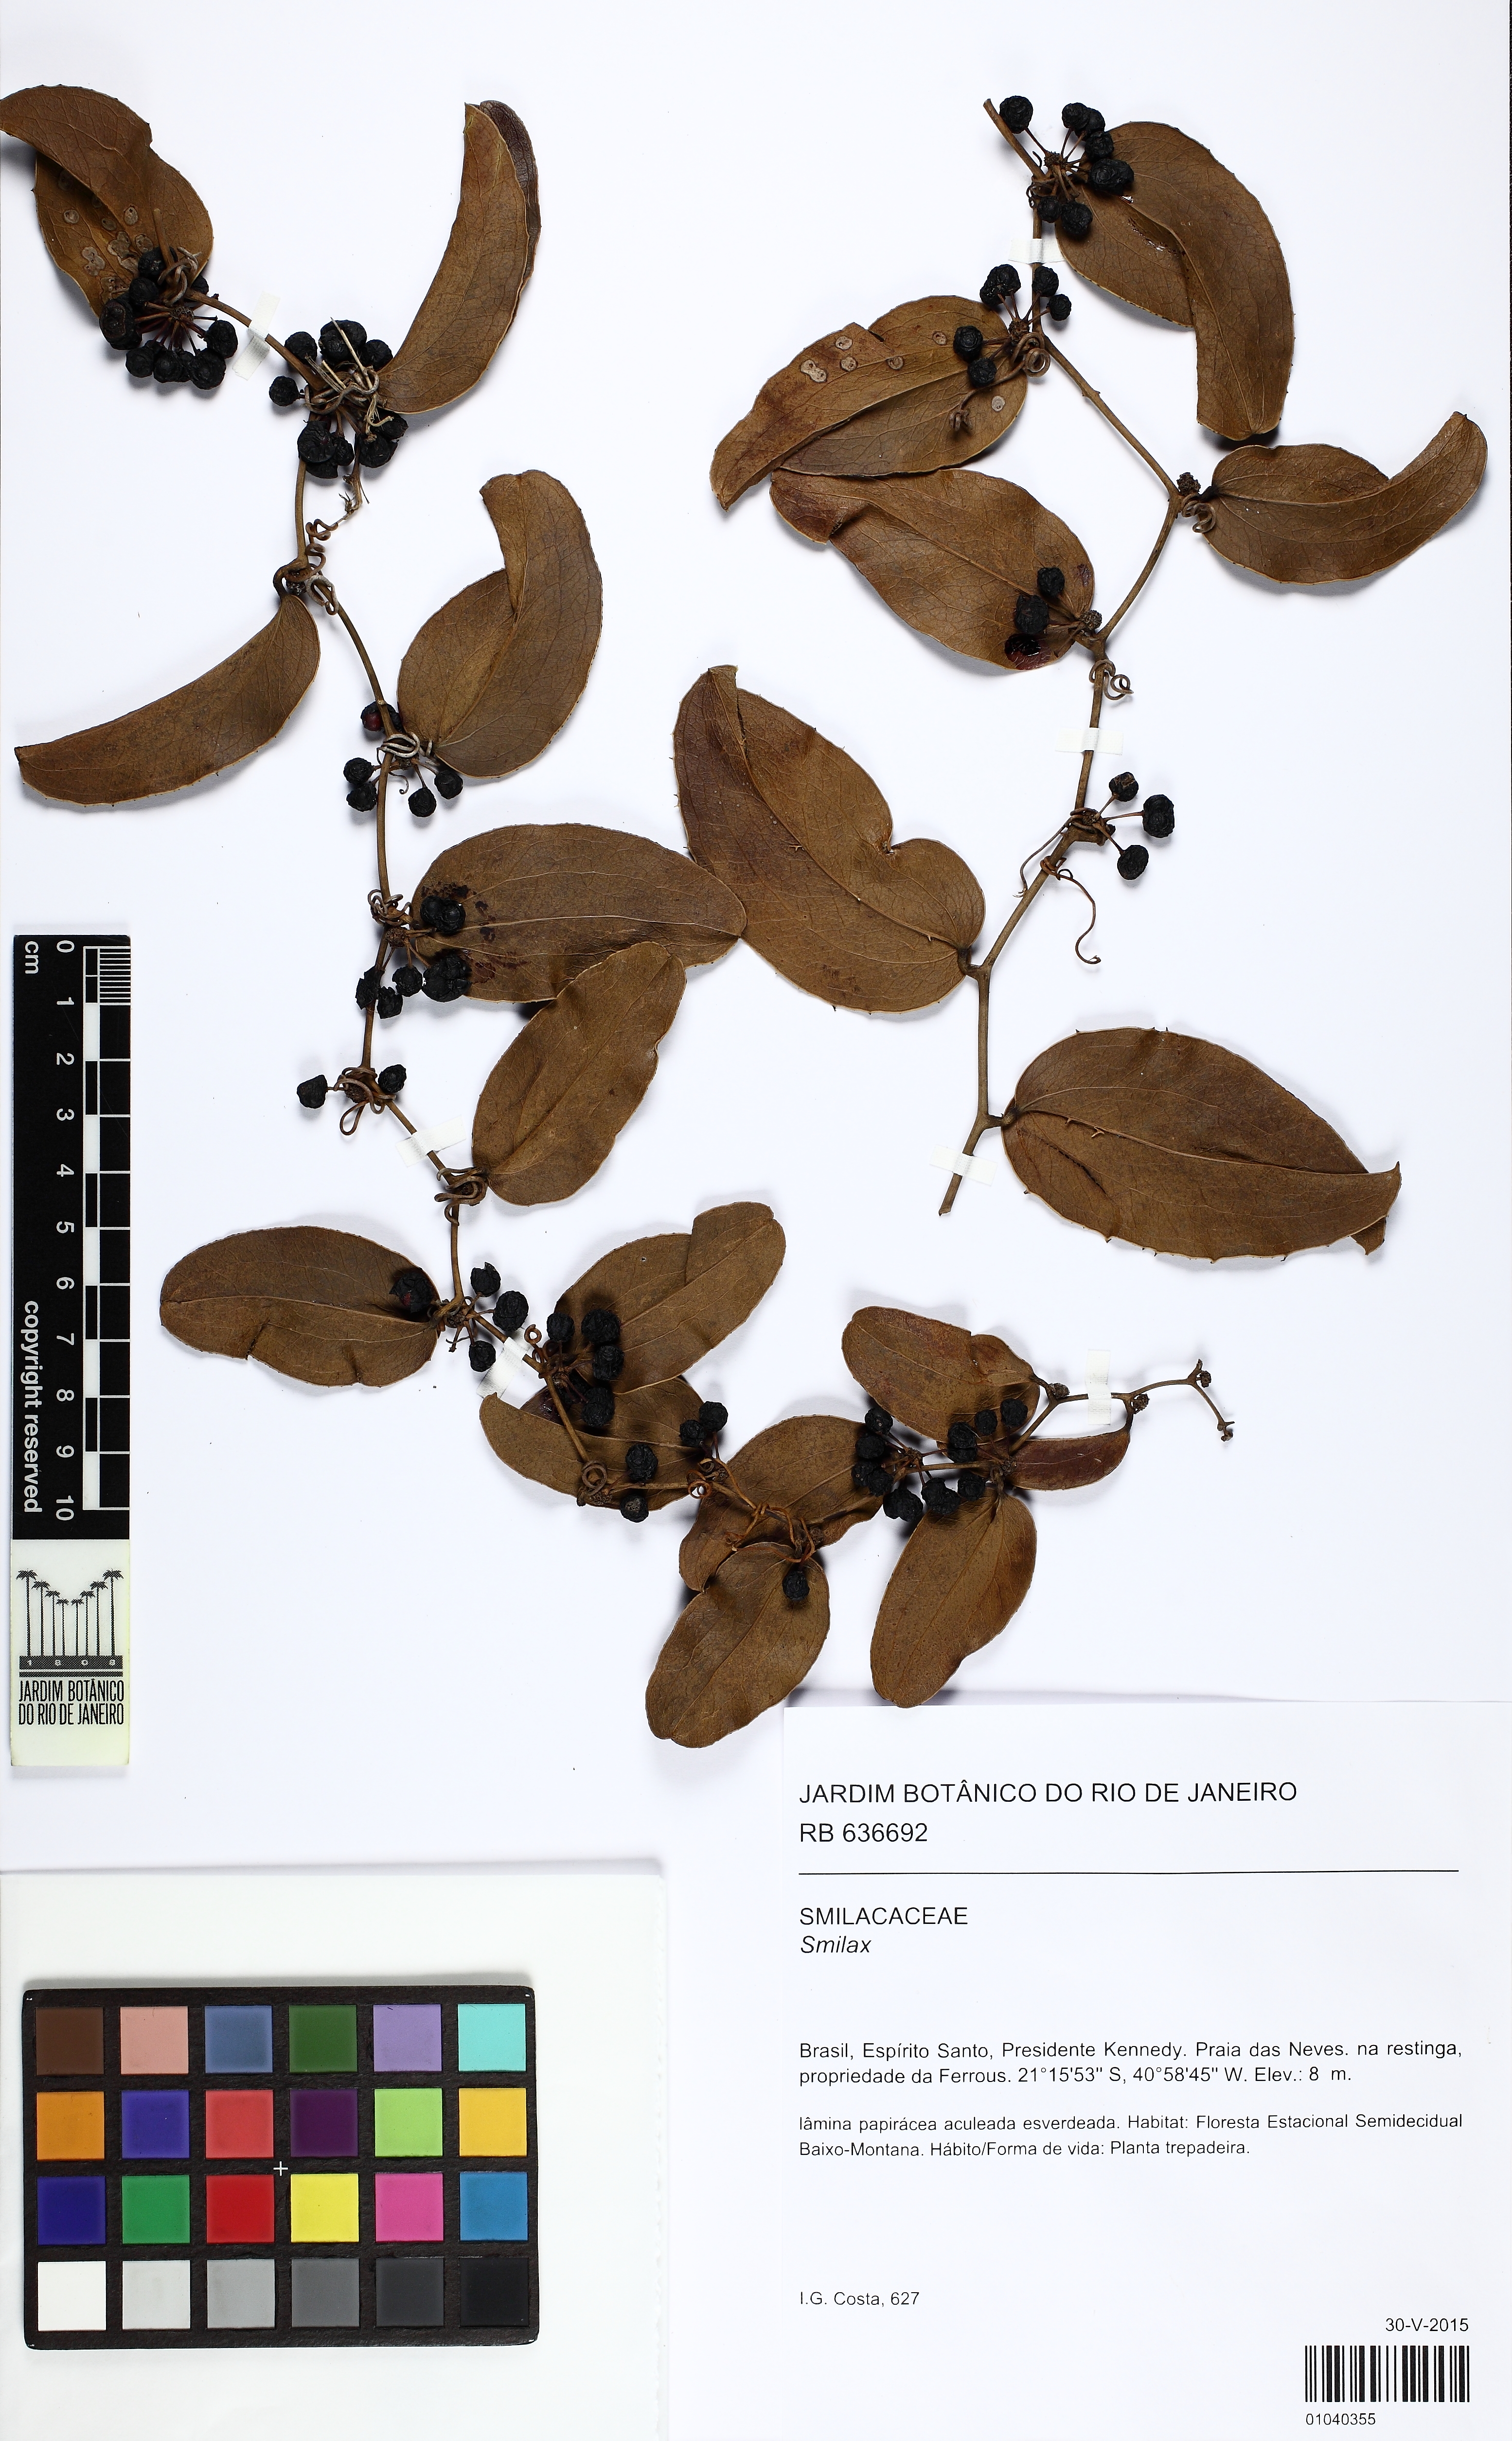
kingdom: Plantae
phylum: Tracheophyta
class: Liliopsida
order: Liliales
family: Smilacaceae
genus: Smilax
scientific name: Smilax
